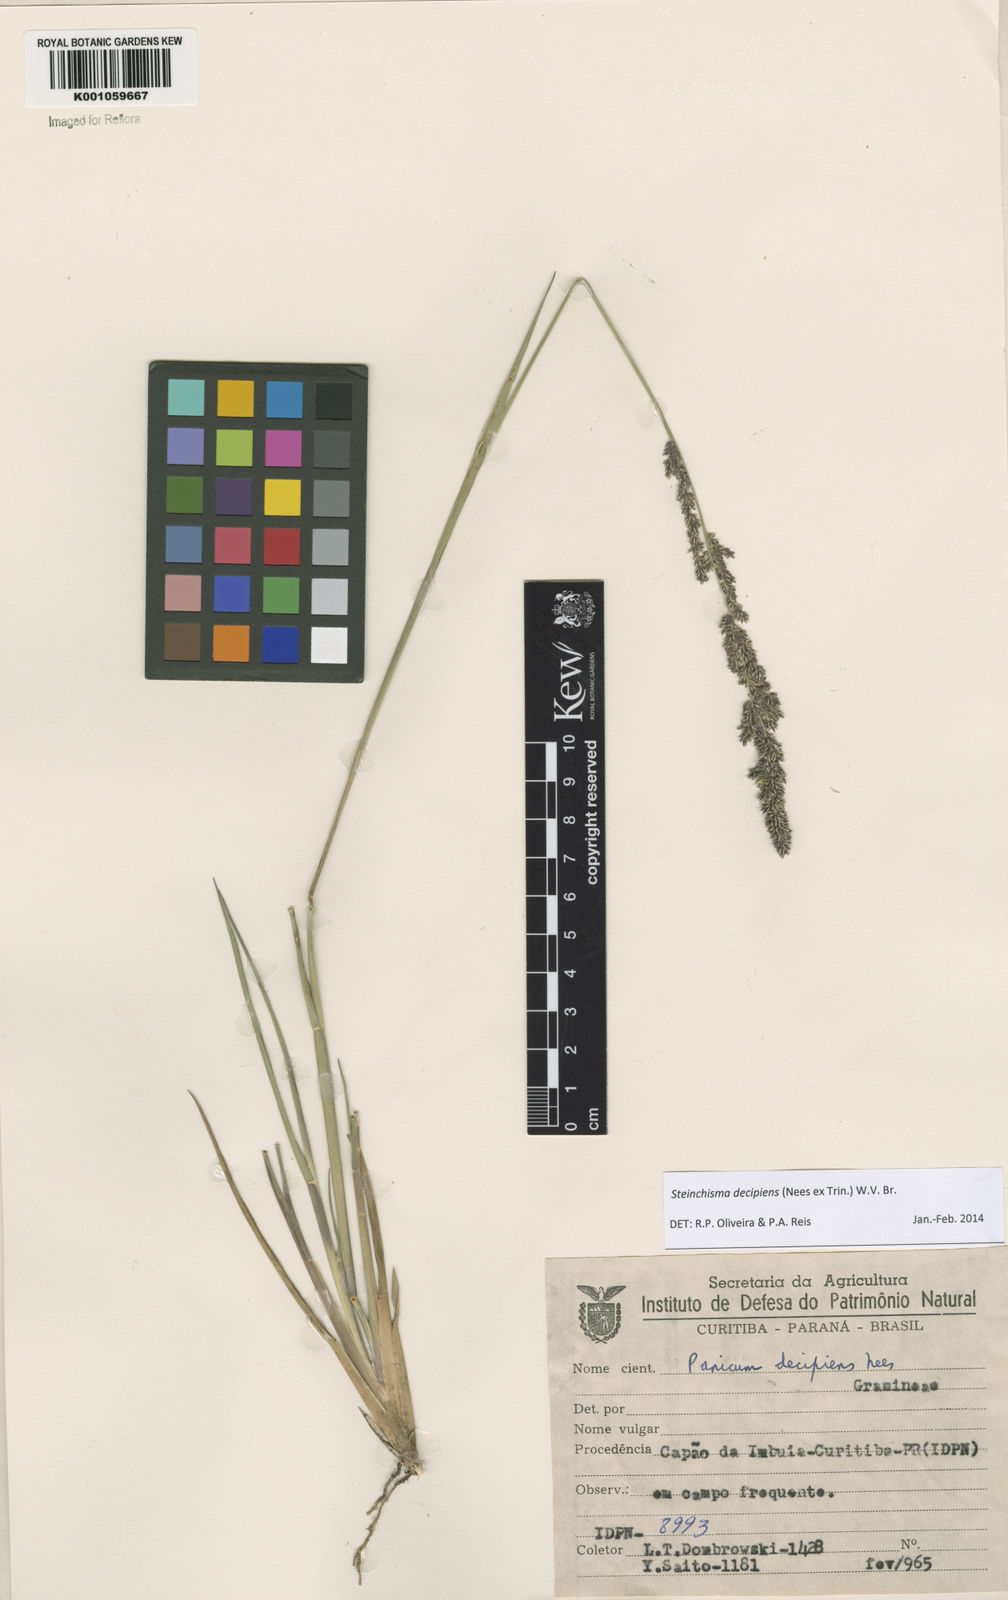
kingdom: Plantae
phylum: Tracheophyta
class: Liliopsida
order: Poales
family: Poaceae
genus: Steinchisma
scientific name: Steinchisma decipiens
